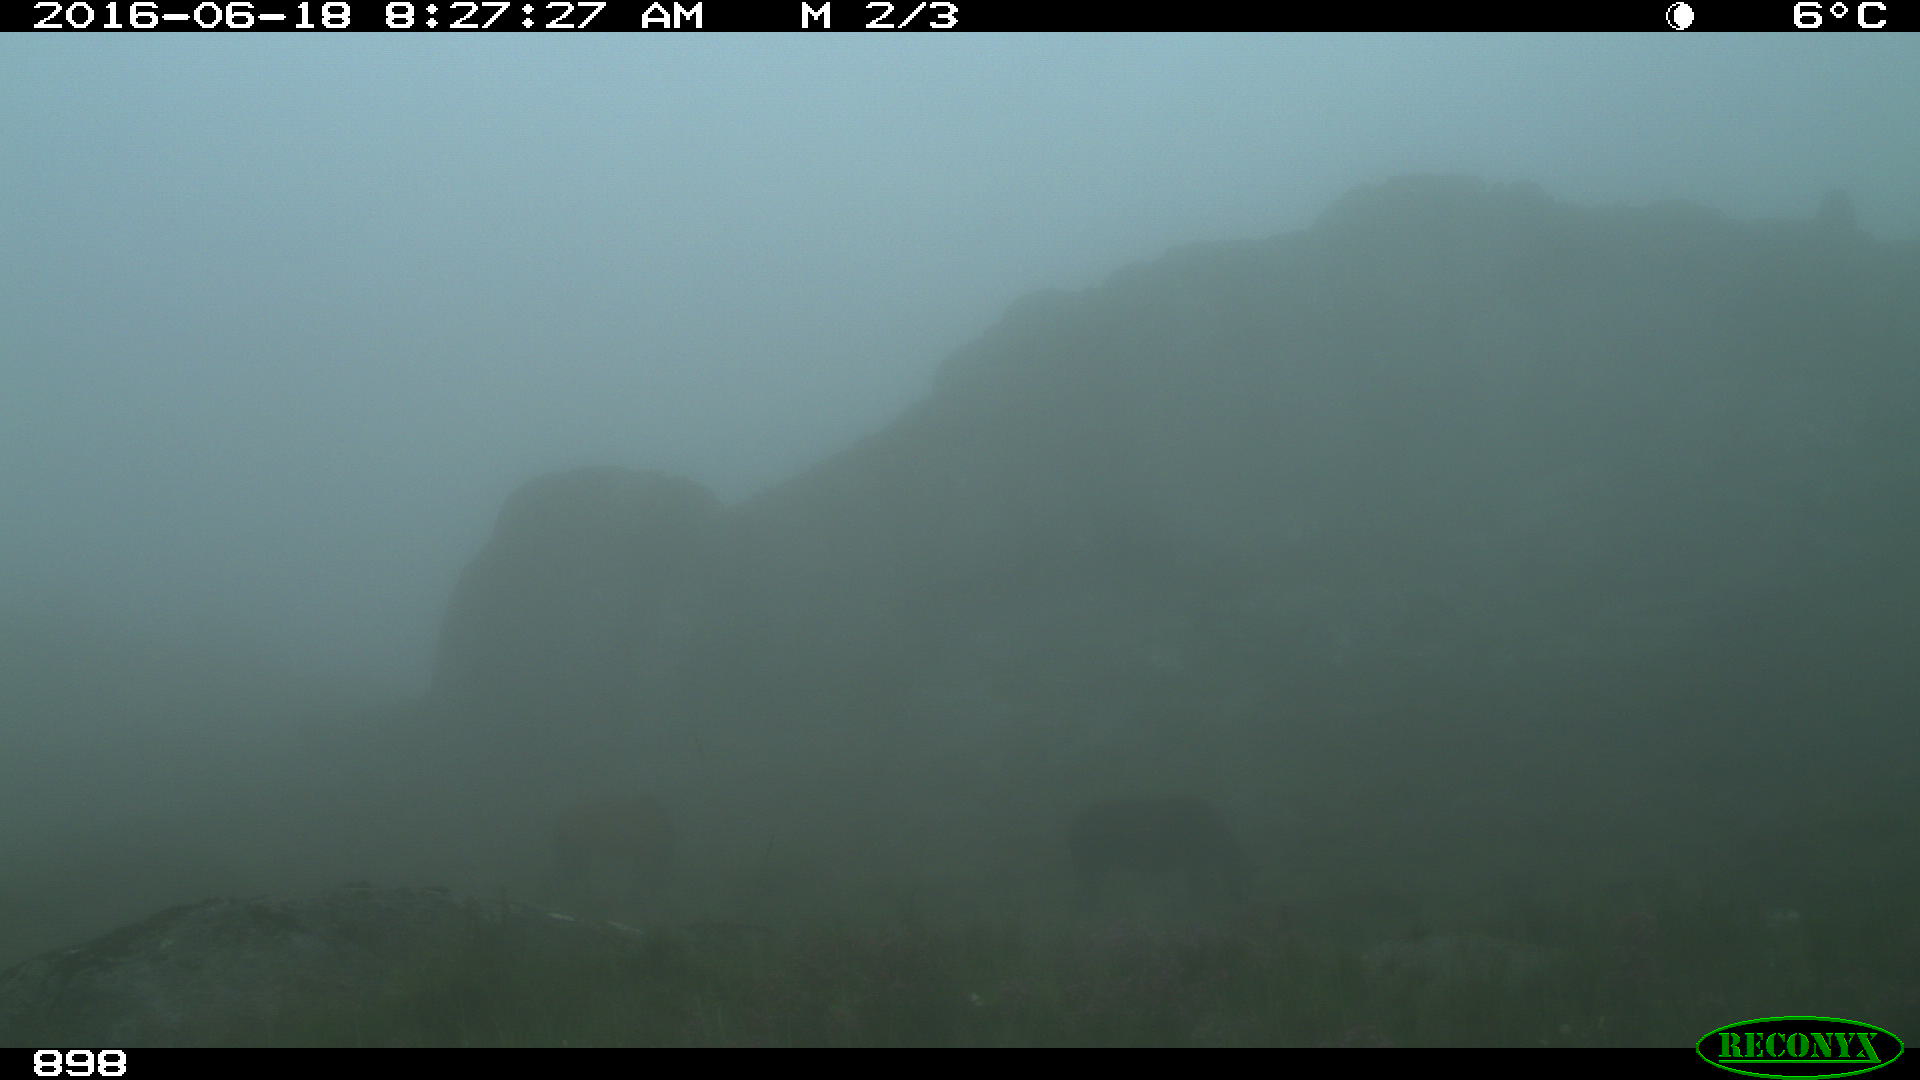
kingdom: Animalia
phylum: Chordata
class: Mammalia
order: Perissodactyla
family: Equidae
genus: Equus
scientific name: Equus caballus
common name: Horse
